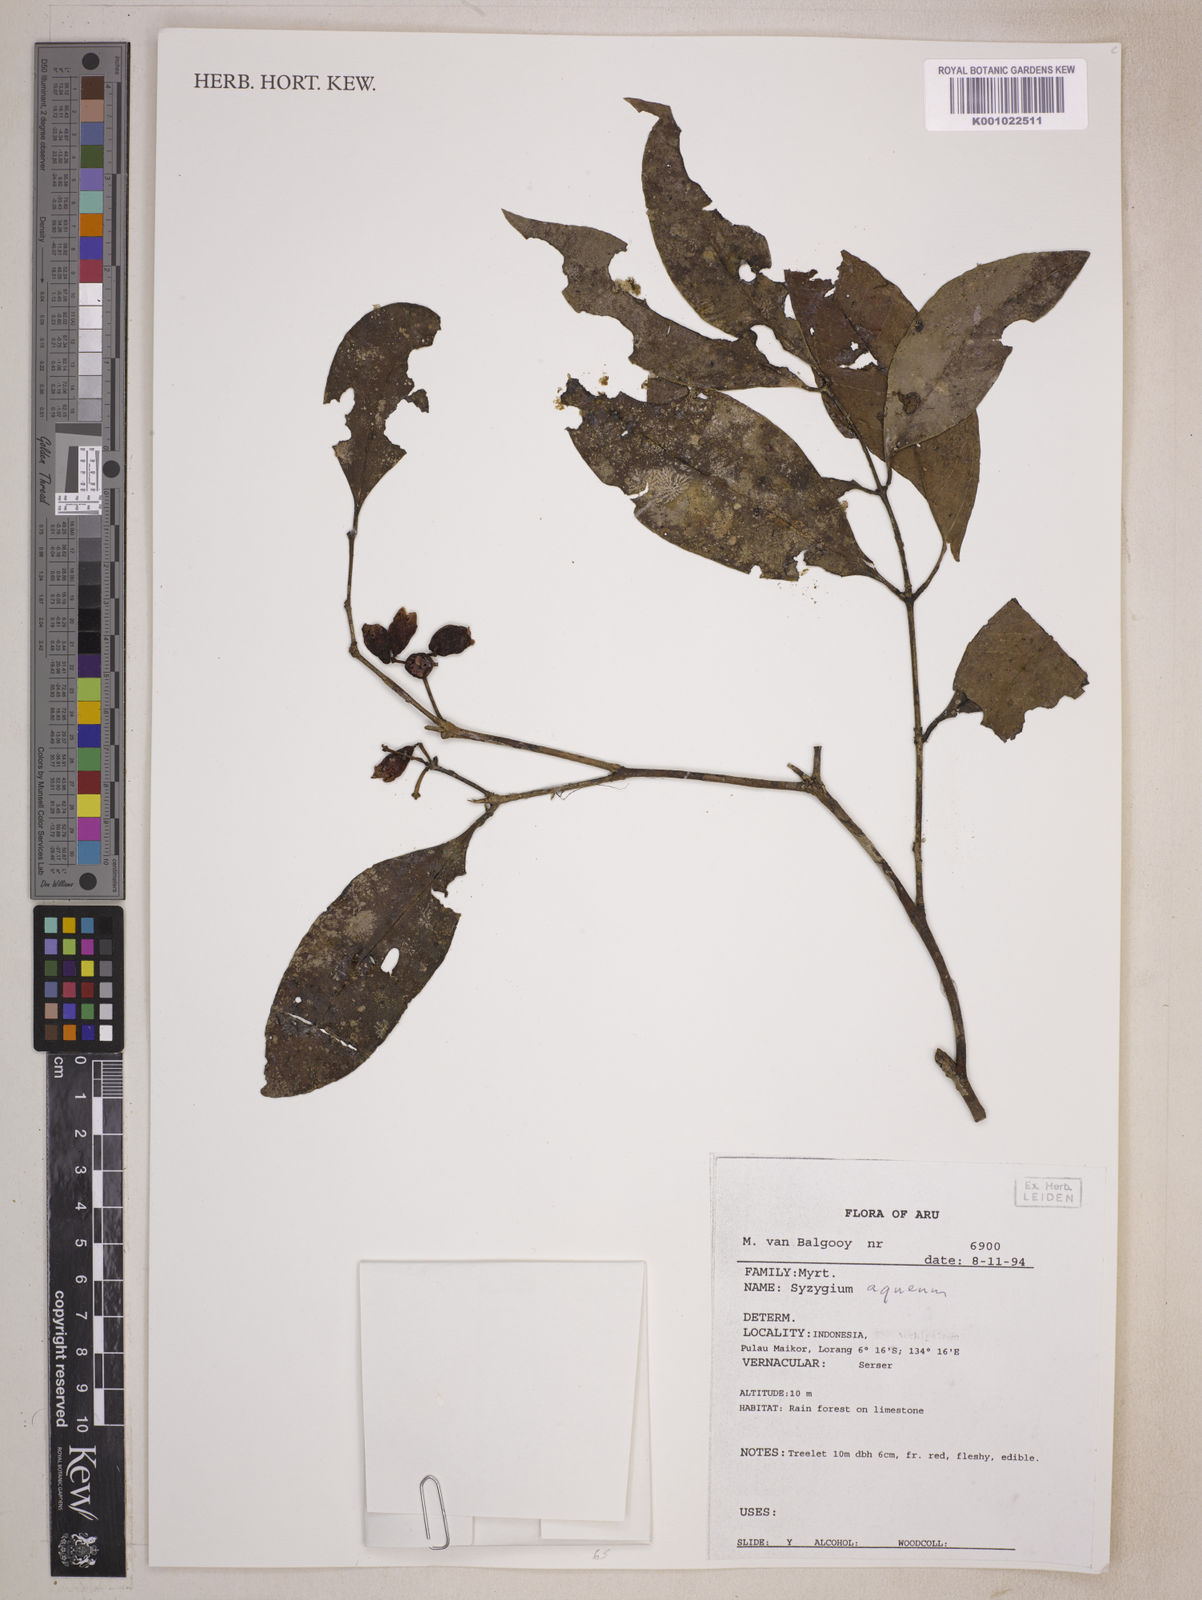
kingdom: Plantae
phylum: Tracheophyta
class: Magnoliopsida
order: Myrtales
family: Myrtaceae
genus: Syzygium
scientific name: Syzygium aqueum
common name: Water-apple
